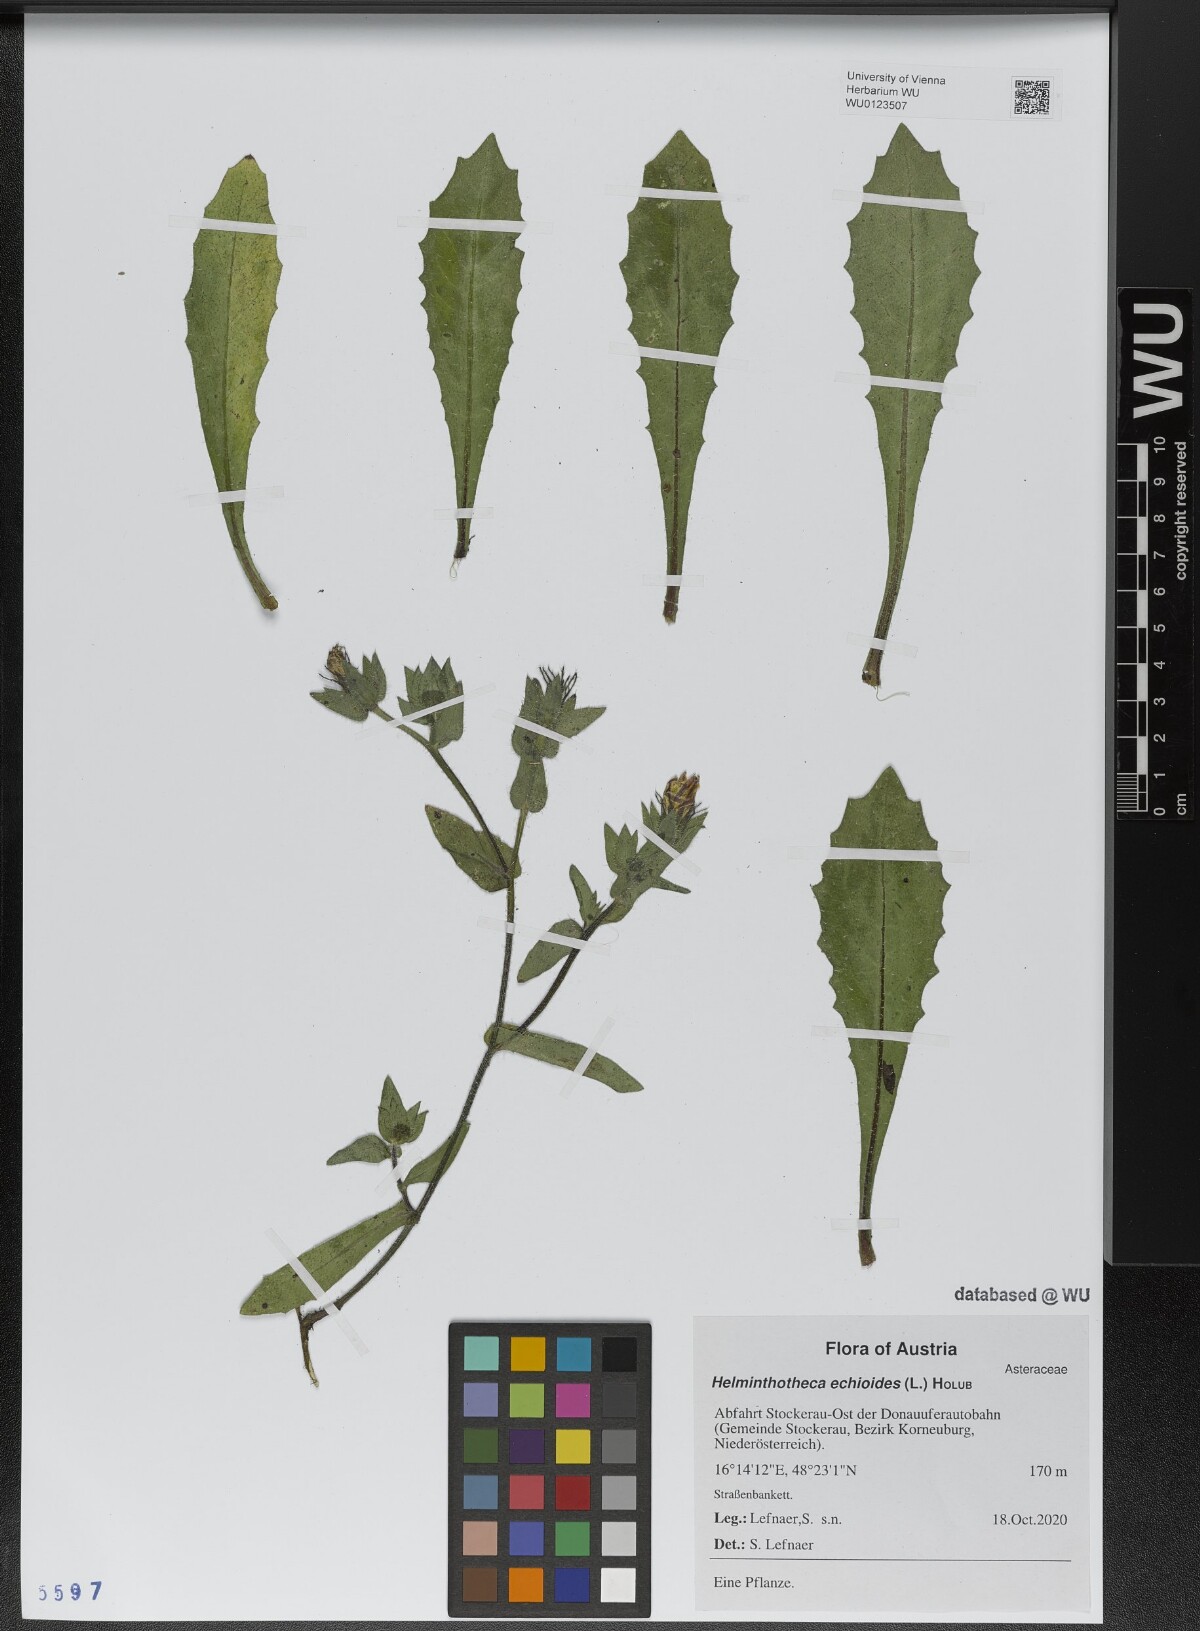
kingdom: Plantae
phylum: Tracheophyta
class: Magnoliopsida
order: Asterales
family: Asteraceae
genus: Helminthotheca
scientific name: Helminthotheca echioides
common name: Ox-tongue
